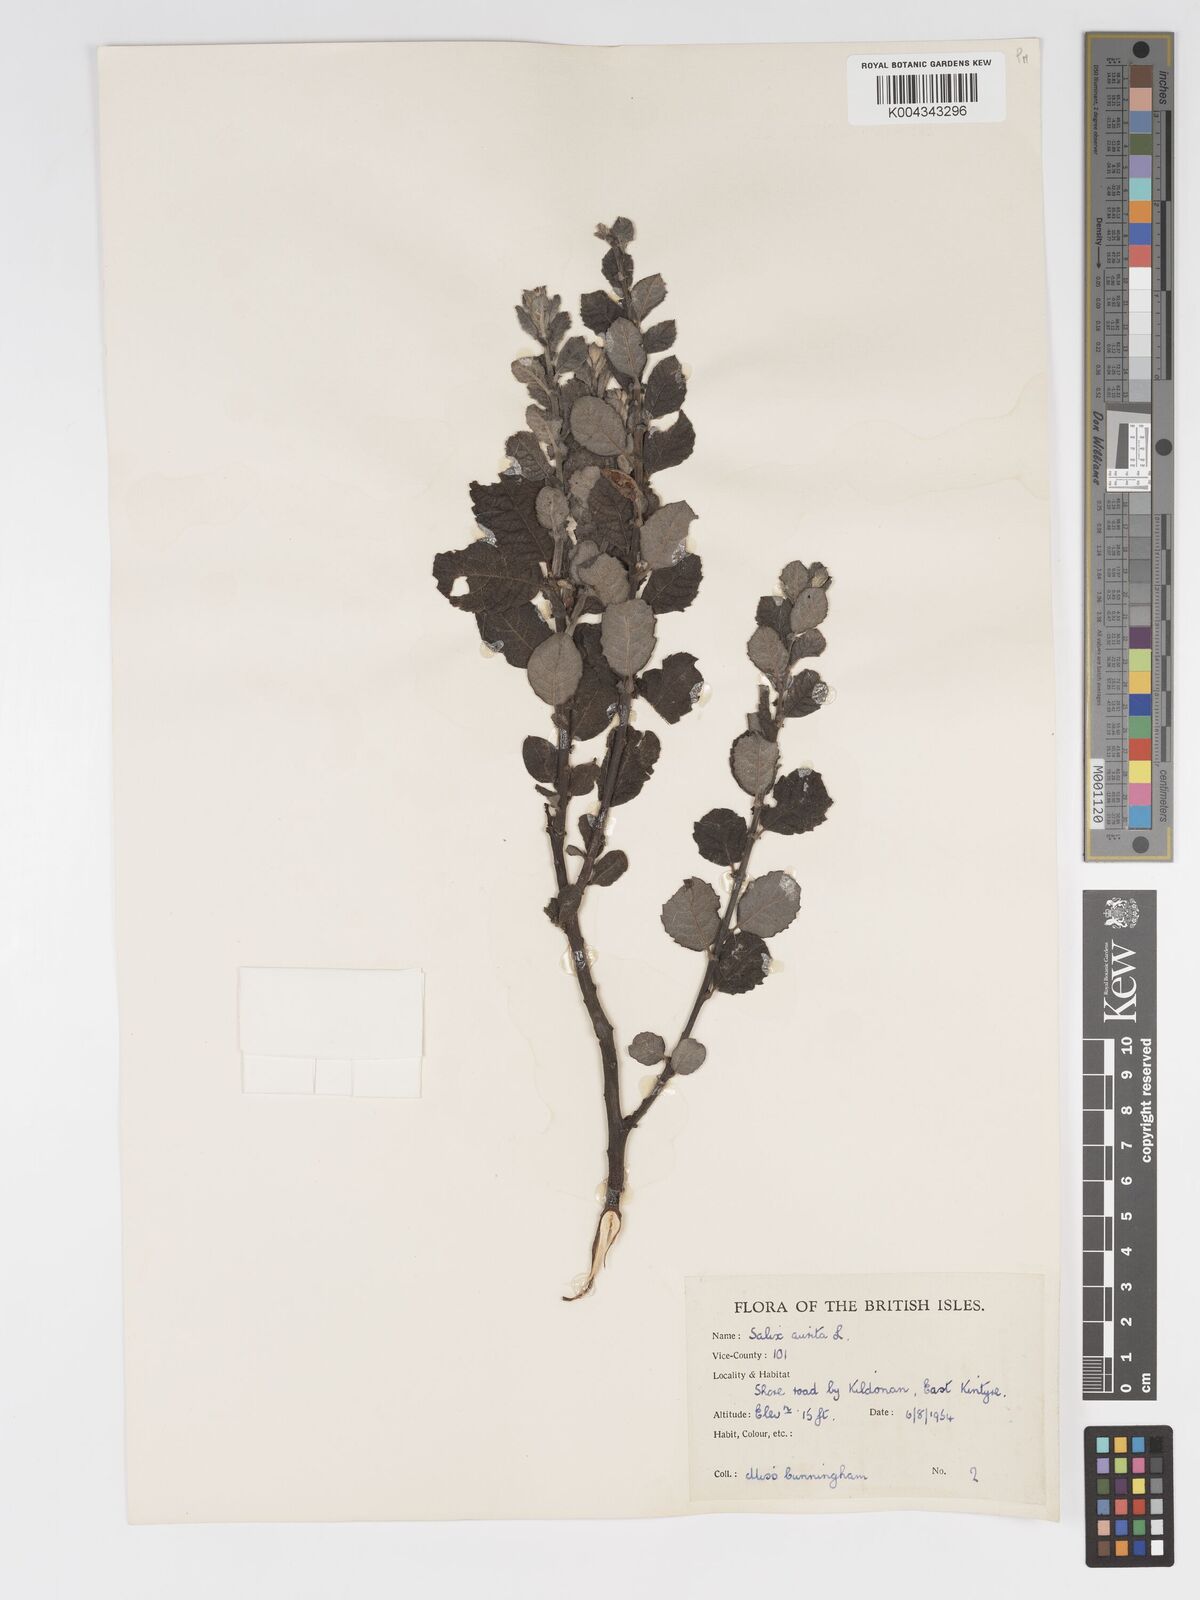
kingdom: Plantae
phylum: Tracheophyta
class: Magnoliopsida
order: Malpighiales
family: Salicaceae
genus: Salix
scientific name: Salix aurita
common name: Eared willow
